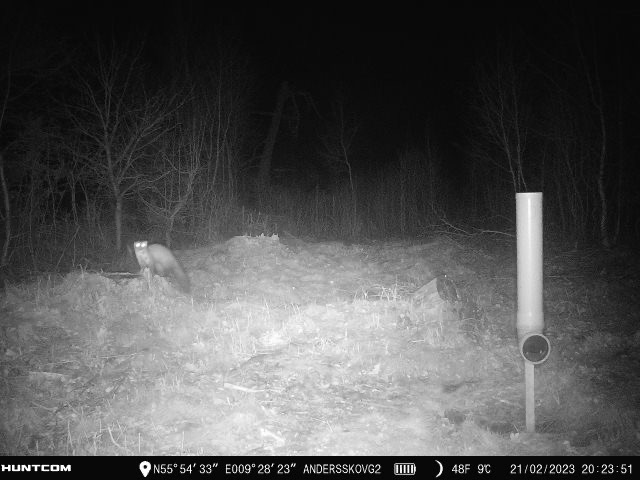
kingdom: Animalia
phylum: Chordata
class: Mammalia
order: Carnivora
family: Mustelidae
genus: Martes
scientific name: Martes foina
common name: Husmår
